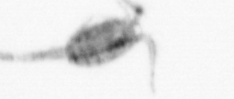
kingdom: Animalia
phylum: Arthropoda
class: Copepoda
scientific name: Copepoda
